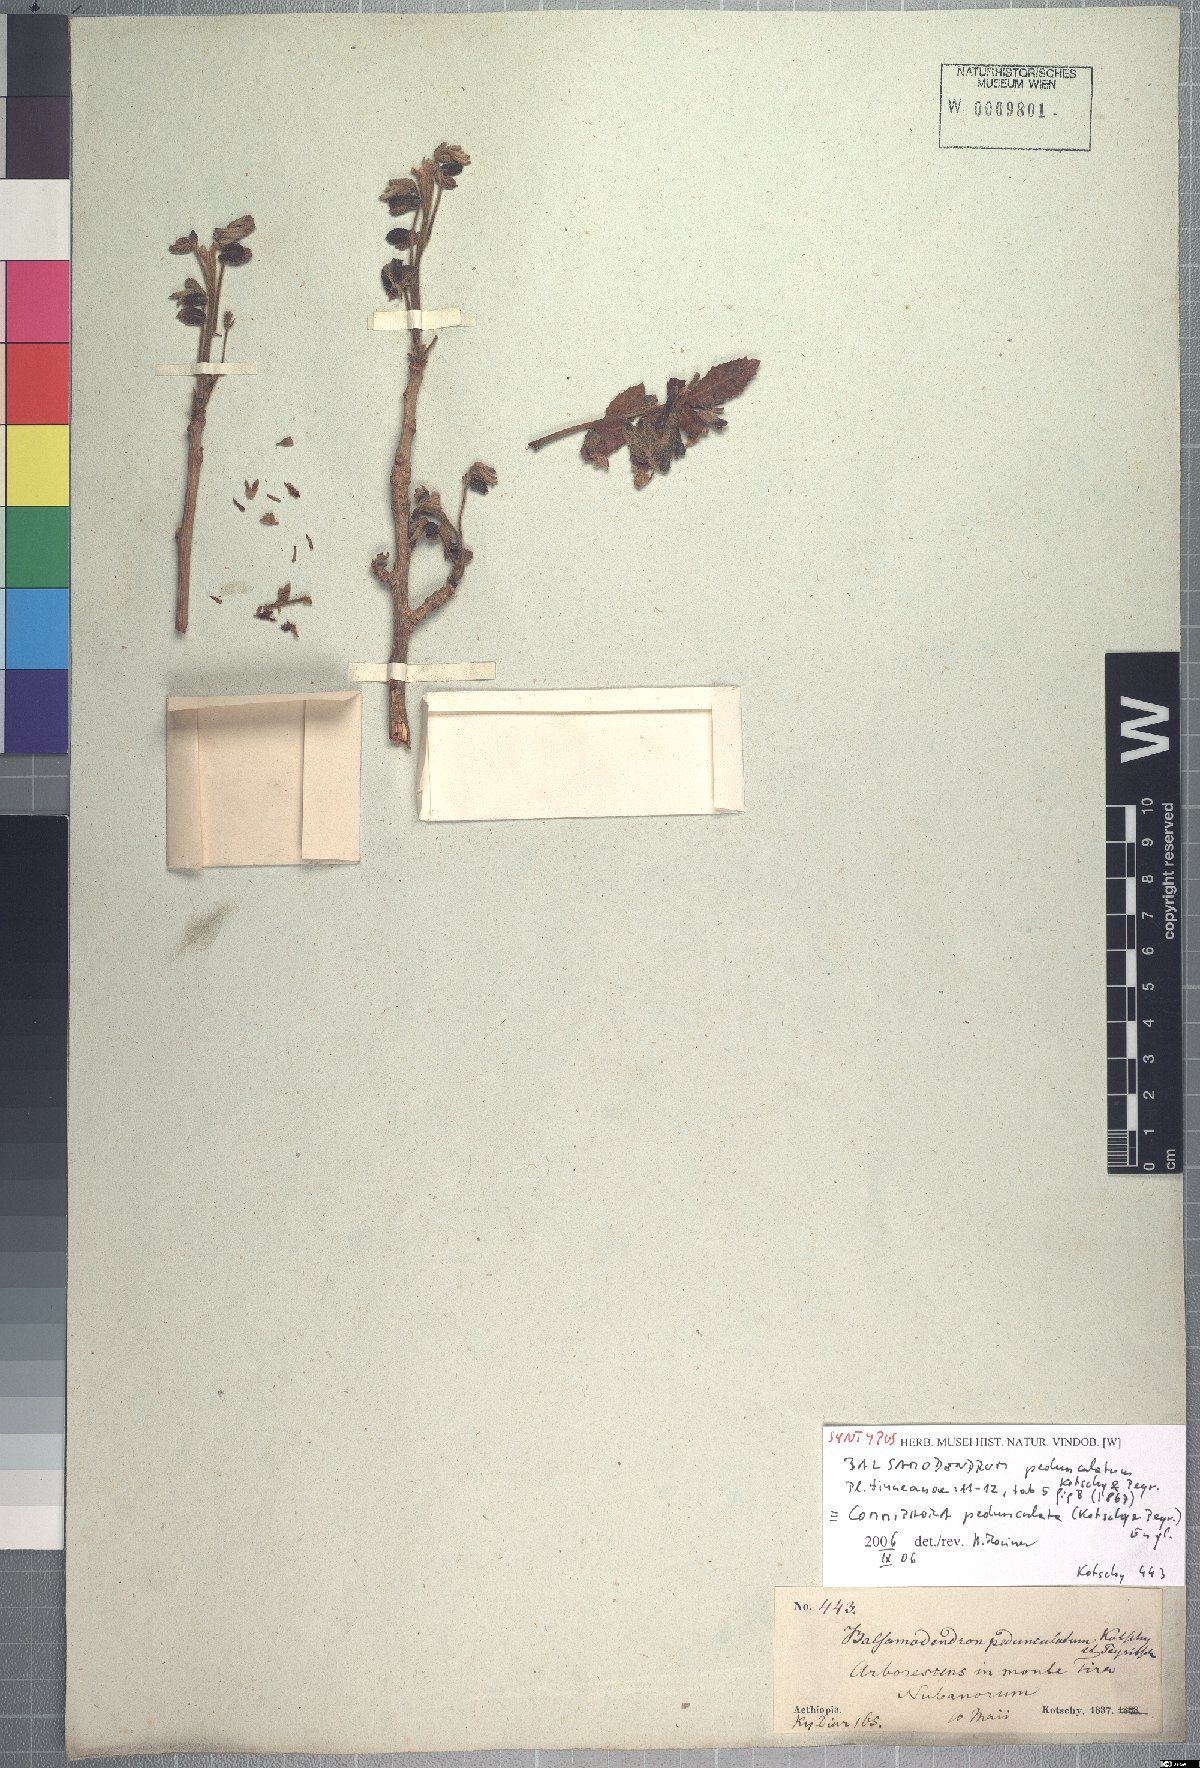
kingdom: Plantae
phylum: Tracheophyta
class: Magnoliopsida
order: Sapindales
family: Burseraceae
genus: Commiphora
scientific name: Commiphora pedunculata
